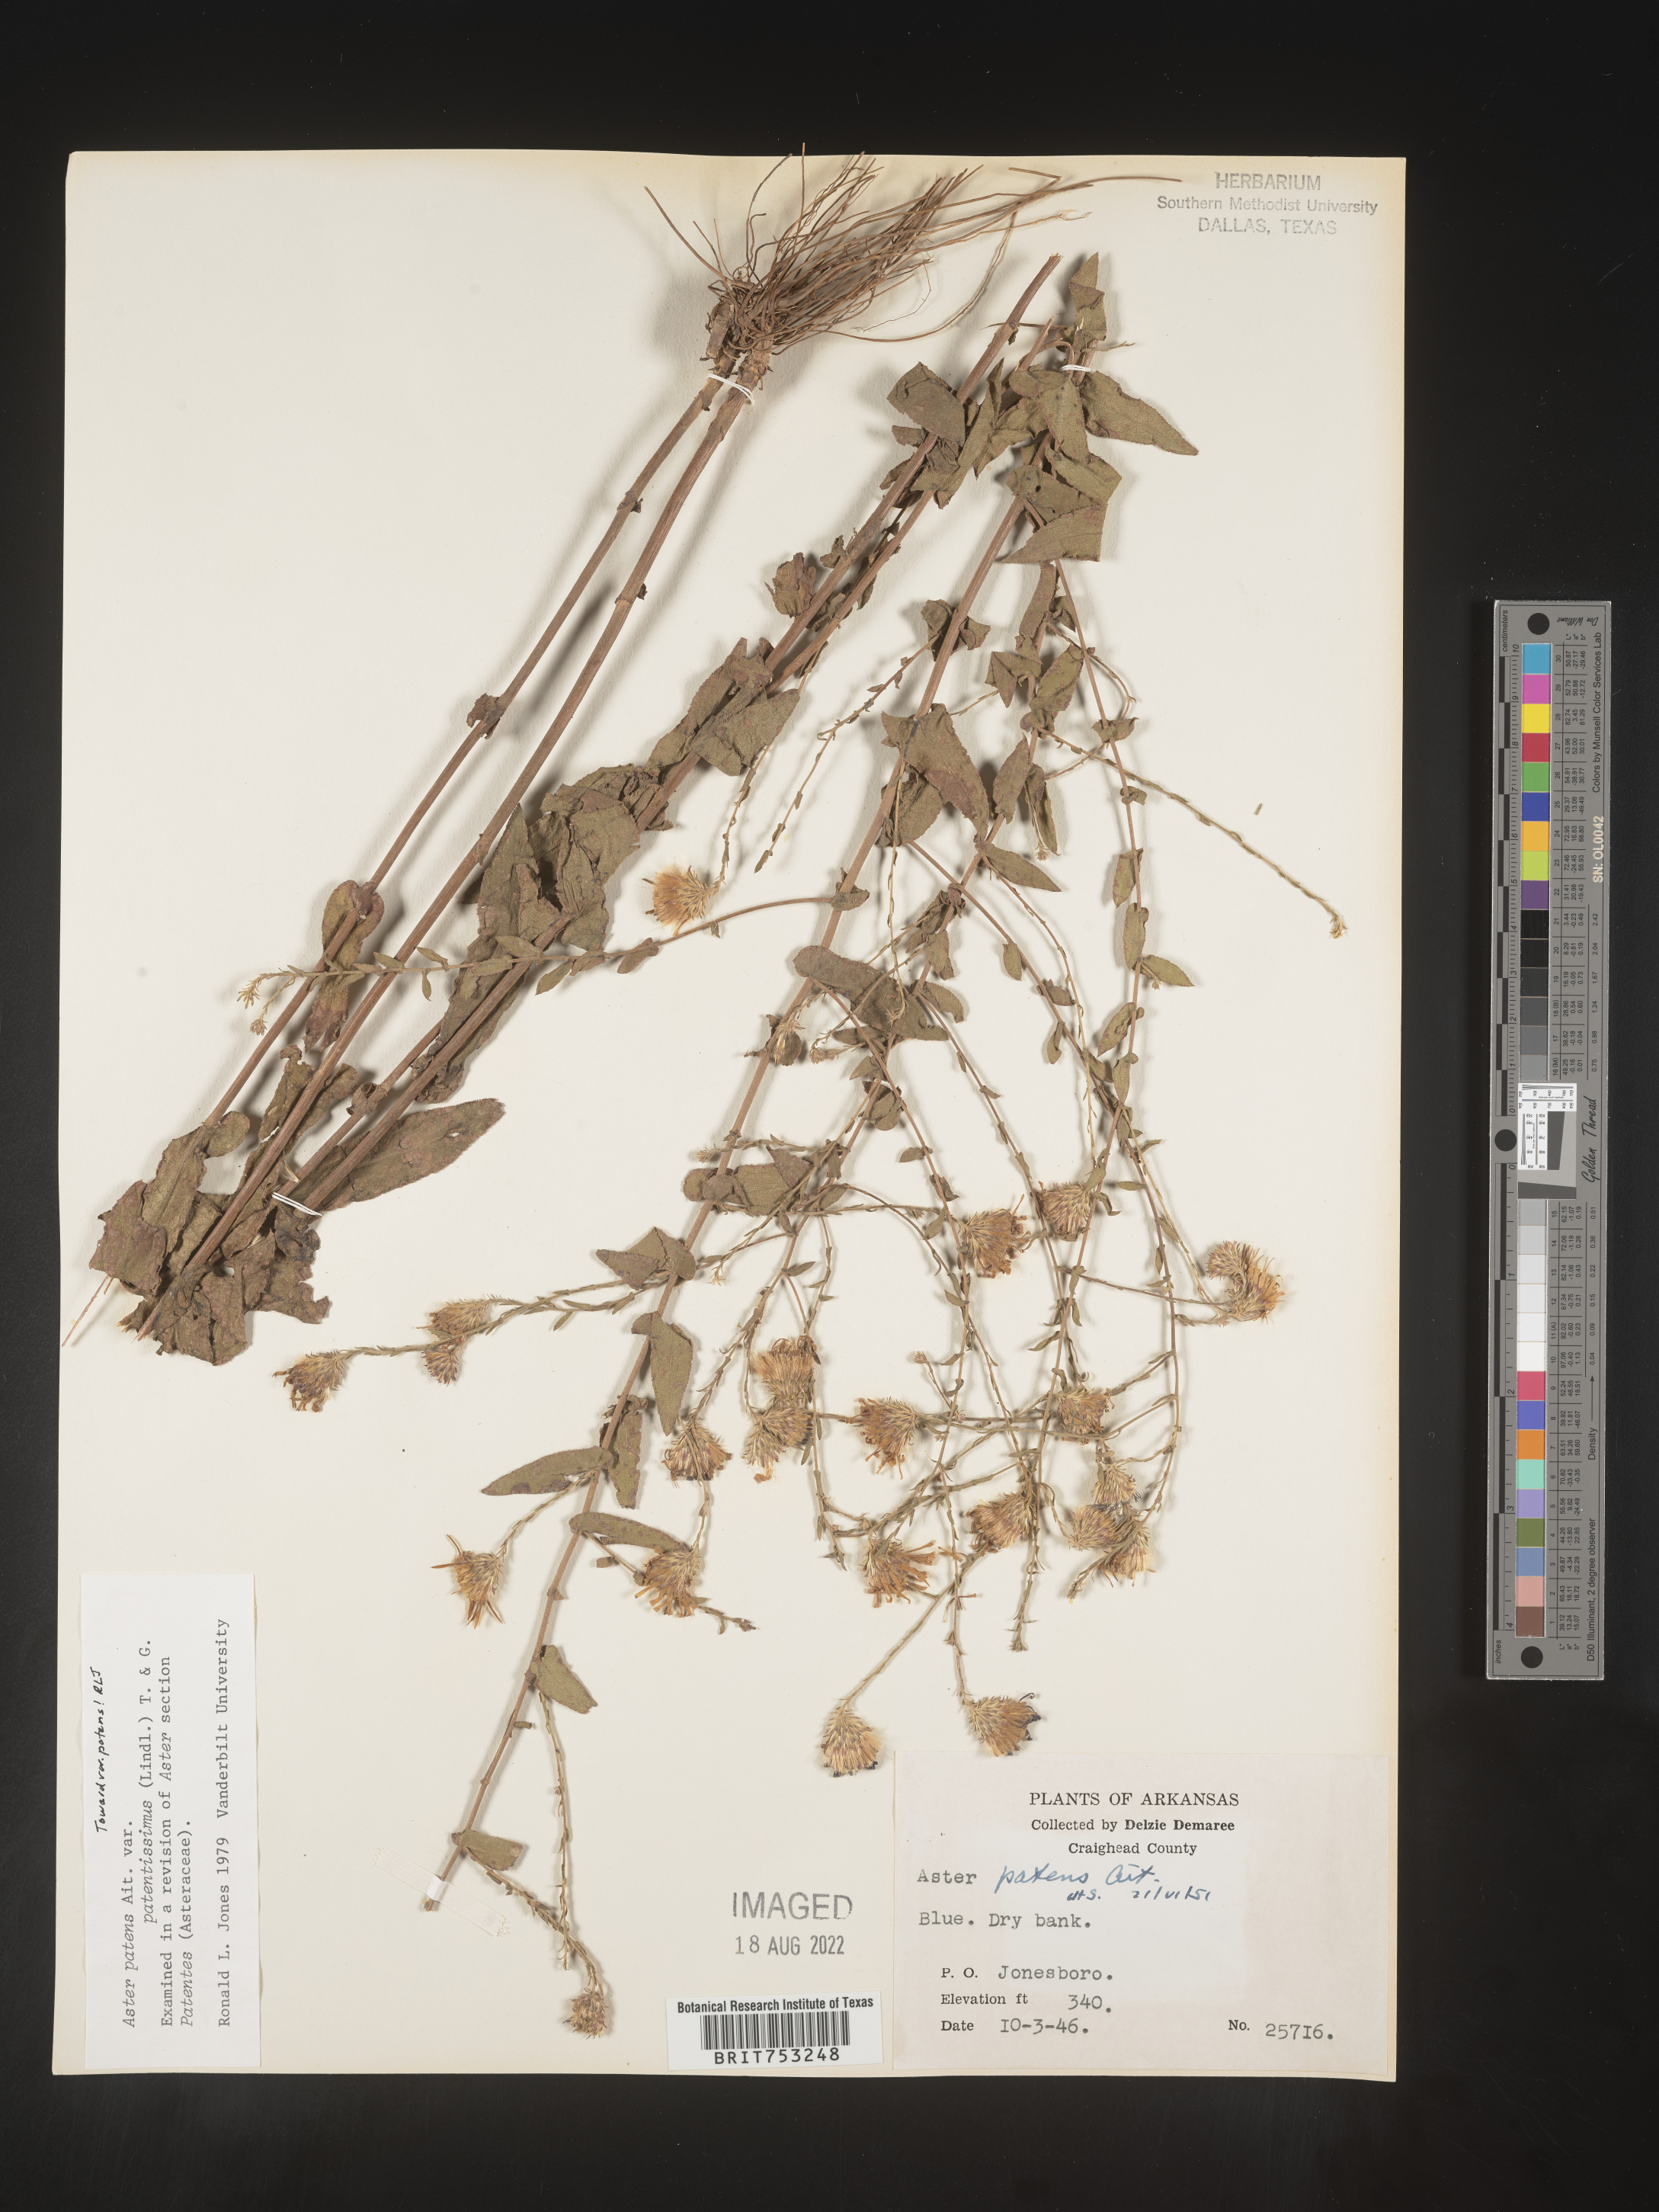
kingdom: Plantae
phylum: Tracheophyta
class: Magnoliopsida
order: Asterales
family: Asteraceae
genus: Symphyotrichum
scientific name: Symphyotrichum patens
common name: Late purple aster
